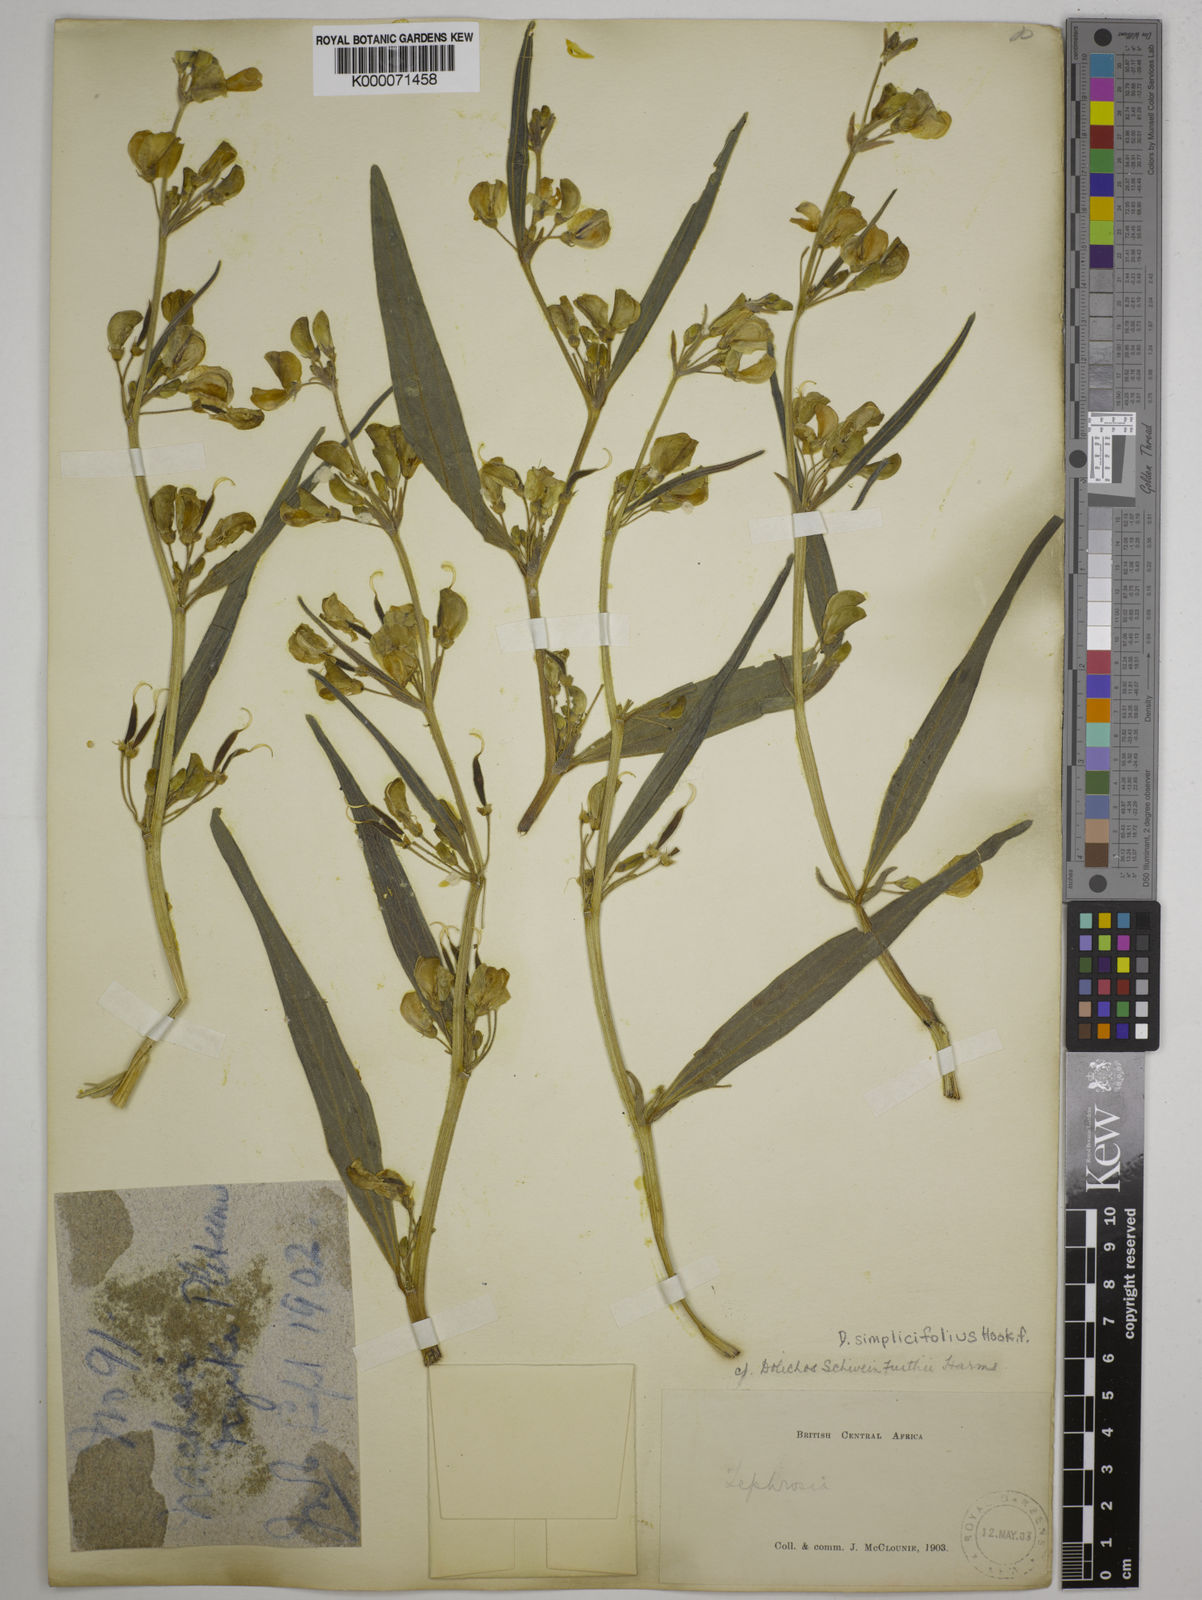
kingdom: Plantae
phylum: Tracheophyta
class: Magnoliopsida
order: Fabales
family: Fabaceae
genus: Dolichos
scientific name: Dolichos simplicifolius
